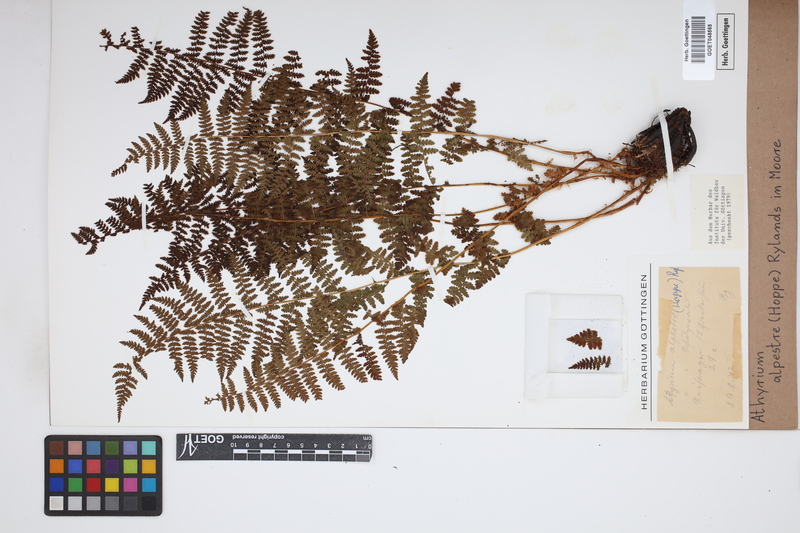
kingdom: Plantae
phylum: Tracheophyta
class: Polypodiopsida
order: Polypodiales
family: Athyriaceae
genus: Pseudathyrium
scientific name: Pseudathyrium alpestre
